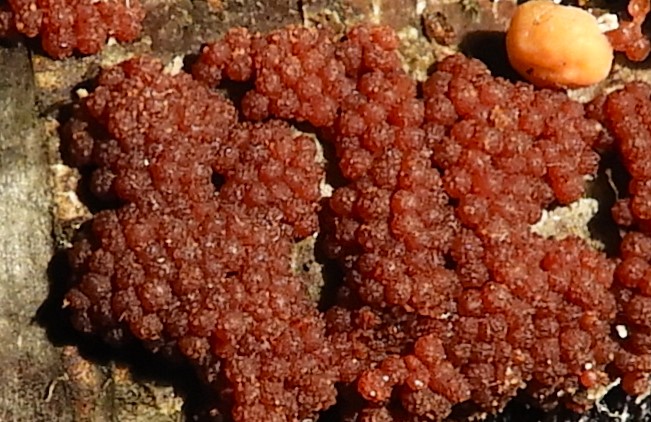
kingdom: Fungi
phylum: Ascomycota
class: Sordariomycetes
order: Hypocreales
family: Nectriaceae
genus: Nectria
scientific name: Nectria cinnabarina
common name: almindelig cinnobersvamp
